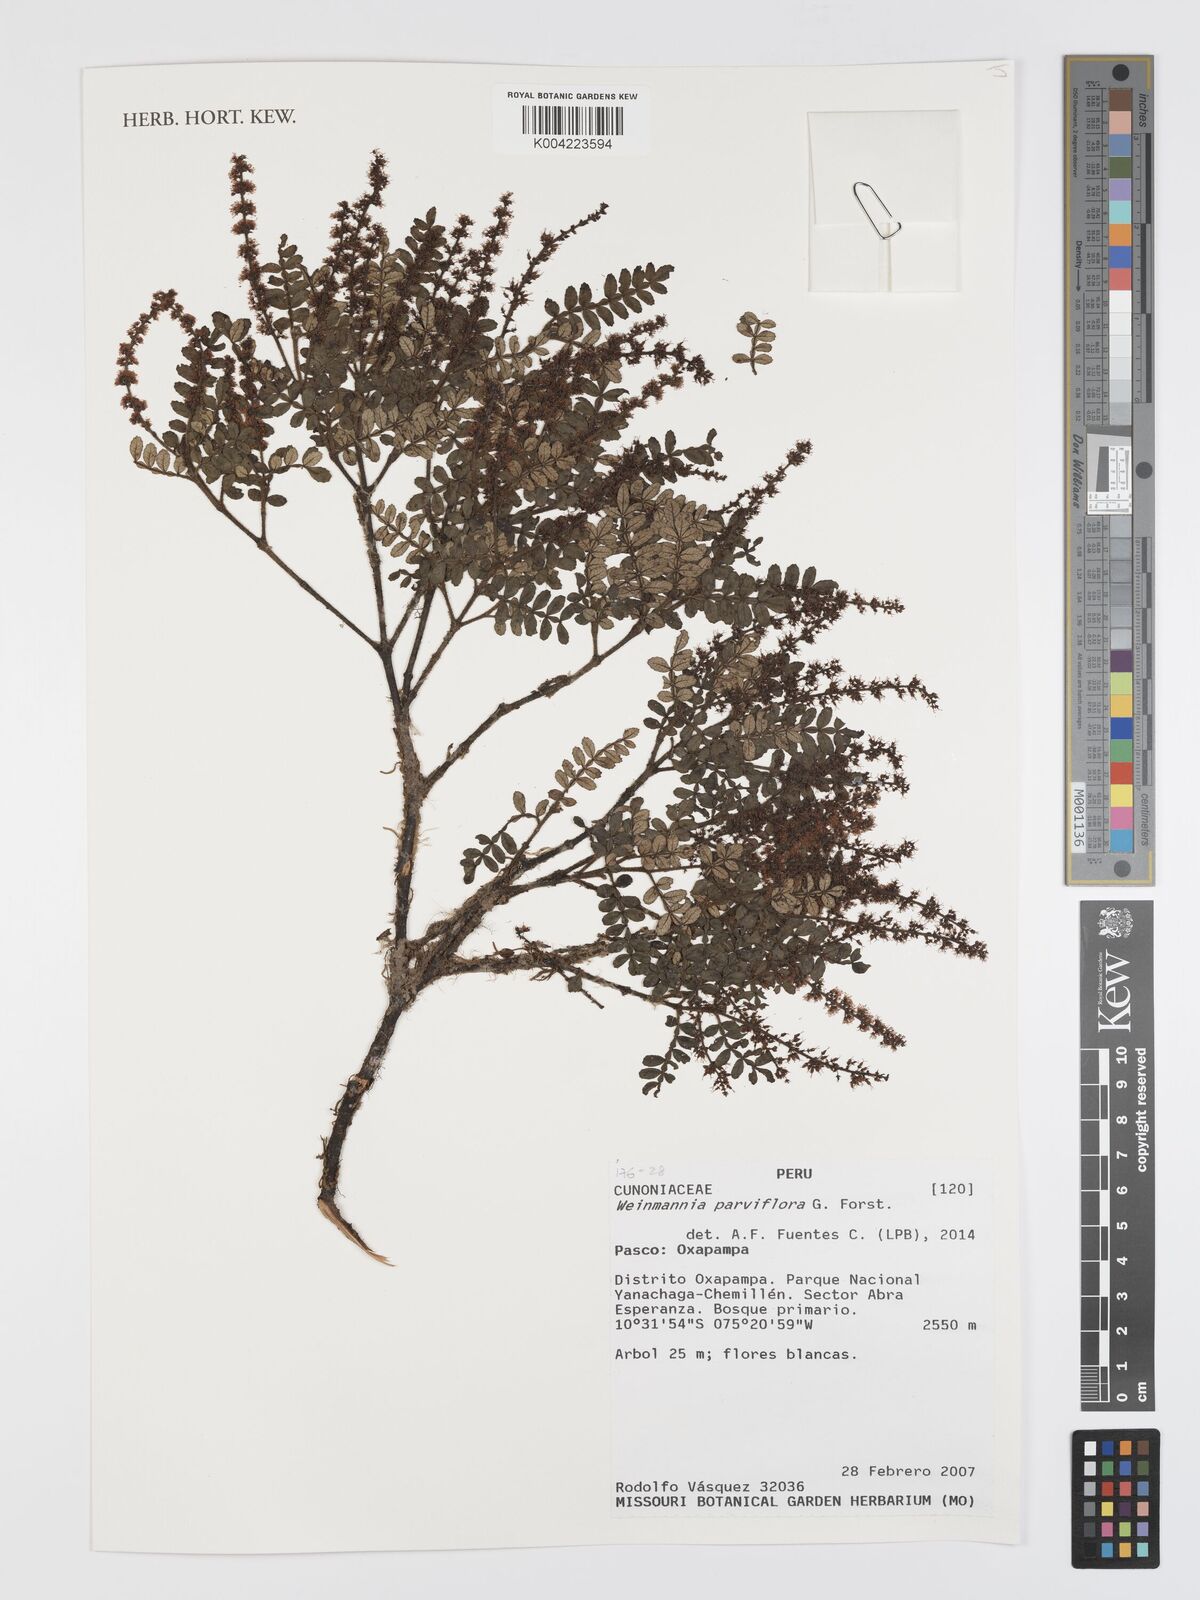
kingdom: Plantae
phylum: Tracheophyta
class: Magnoliopsida
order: Oxalidales
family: Cunoniaceae
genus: Weinmannia
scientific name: Weinmannia
